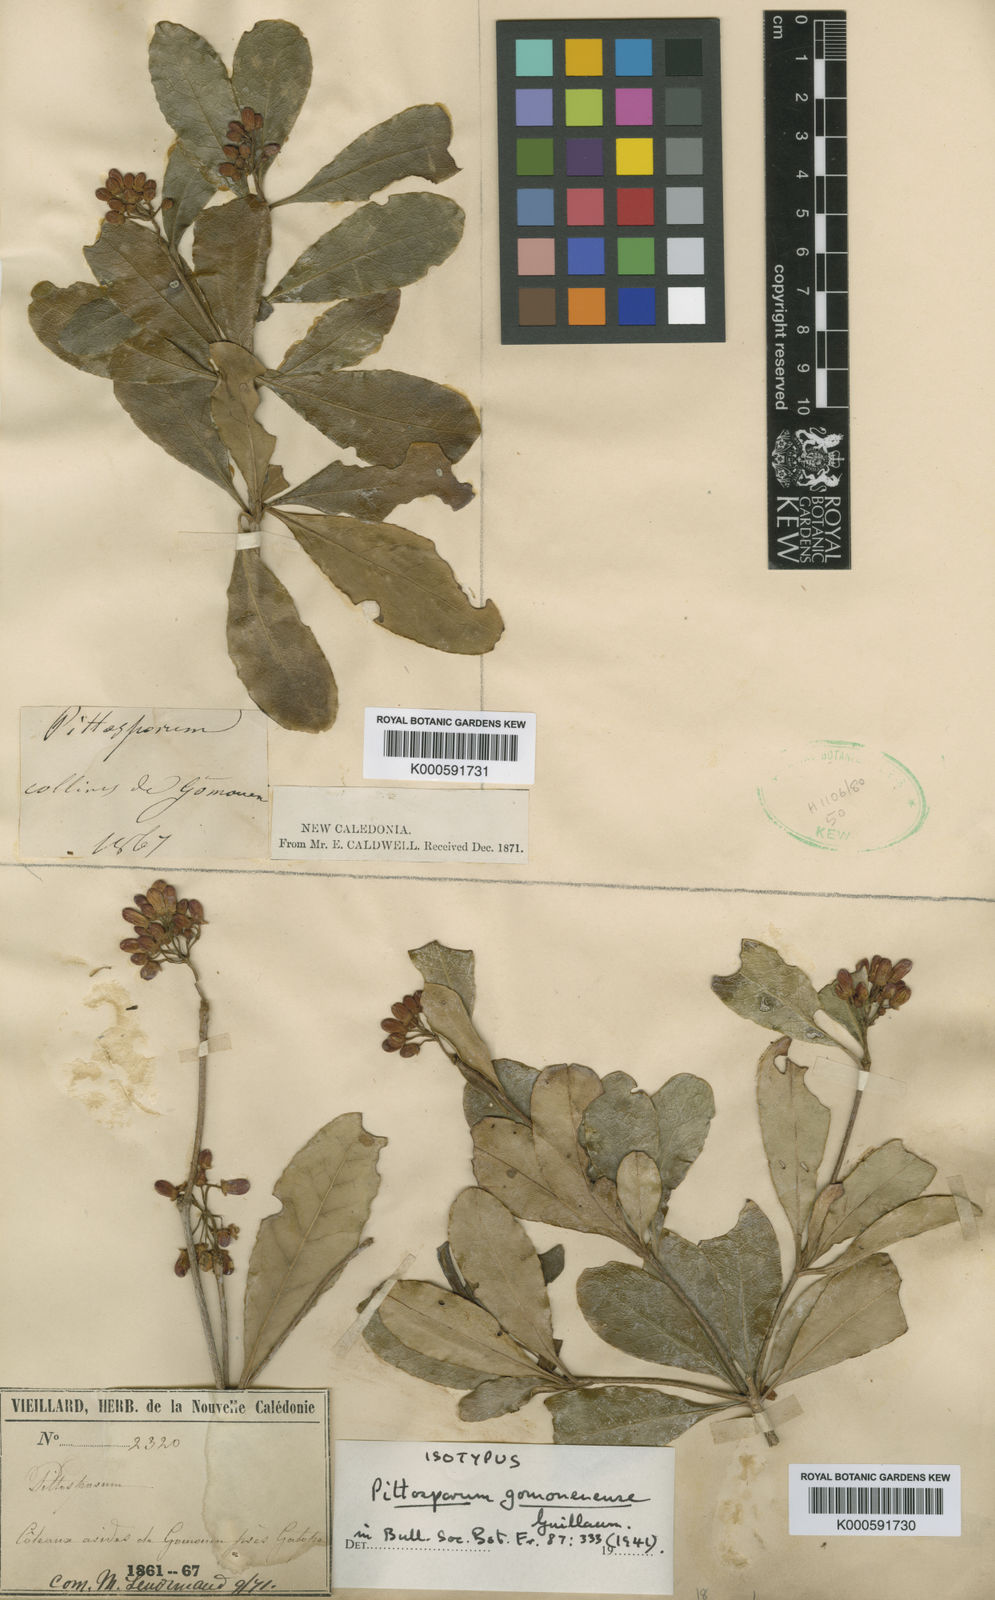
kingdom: Plantae
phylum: Tracheophyta
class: Magnoliopsida
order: Apiales
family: Pittosporaceae
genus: Pittosporum
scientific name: Pittosporum coccineum
